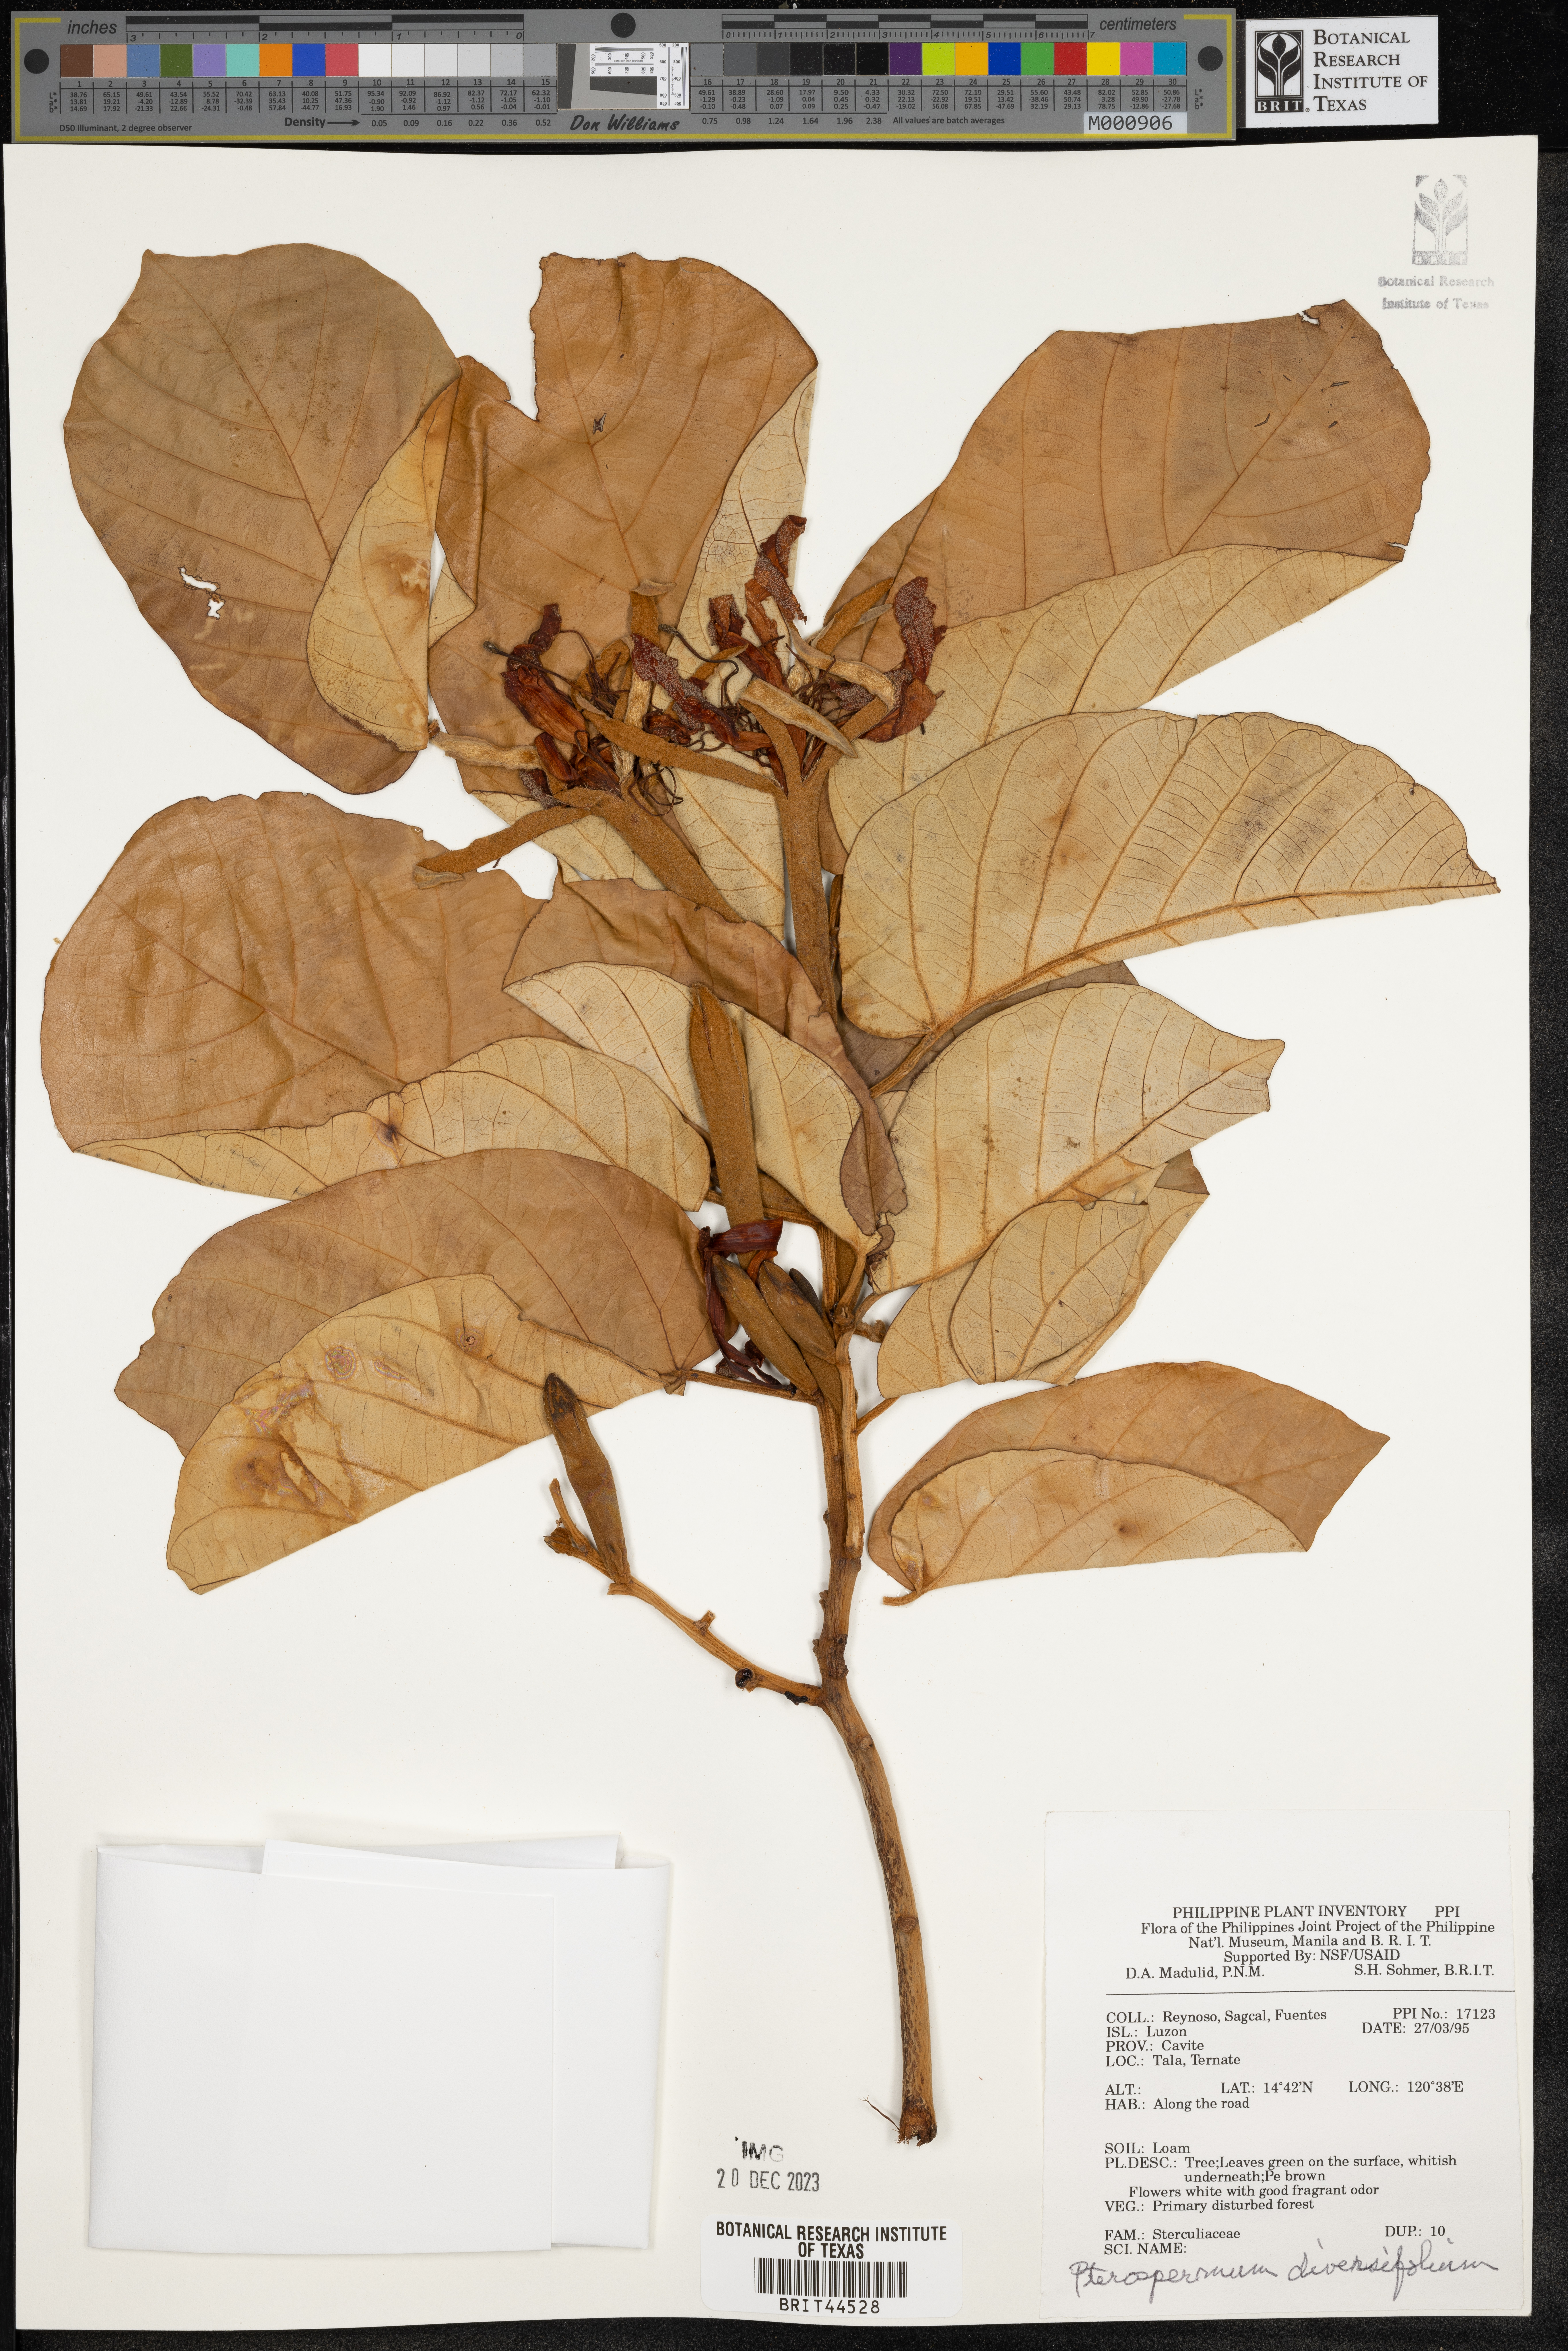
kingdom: Plantae
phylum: Tracheophyta
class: Magnoliopsida
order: Malvales
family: Malvaceae
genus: Pterospermum
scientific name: Pterospermum diversifolium
